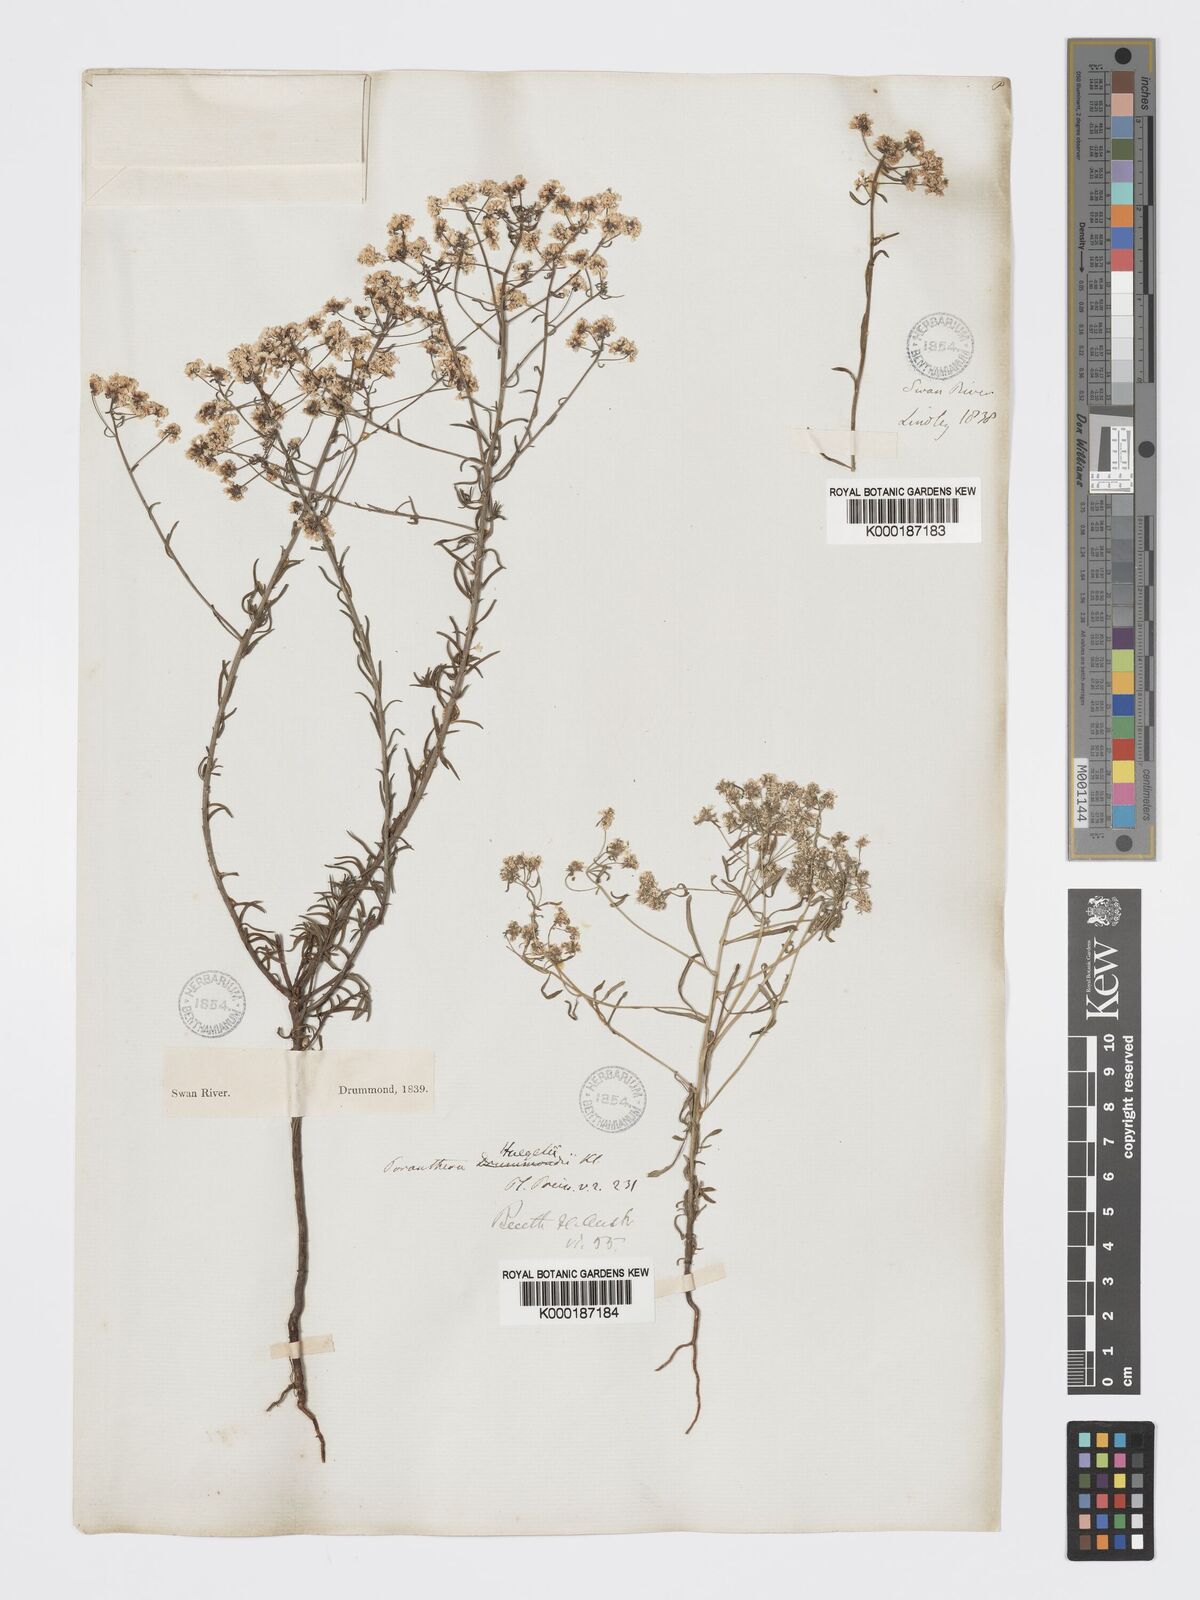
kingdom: Plantae
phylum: Tracheophyta
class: Magnoliopsida
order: Malpighiales
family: Phyllanthaceae
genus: Poranthera
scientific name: Poranthera huegelii
